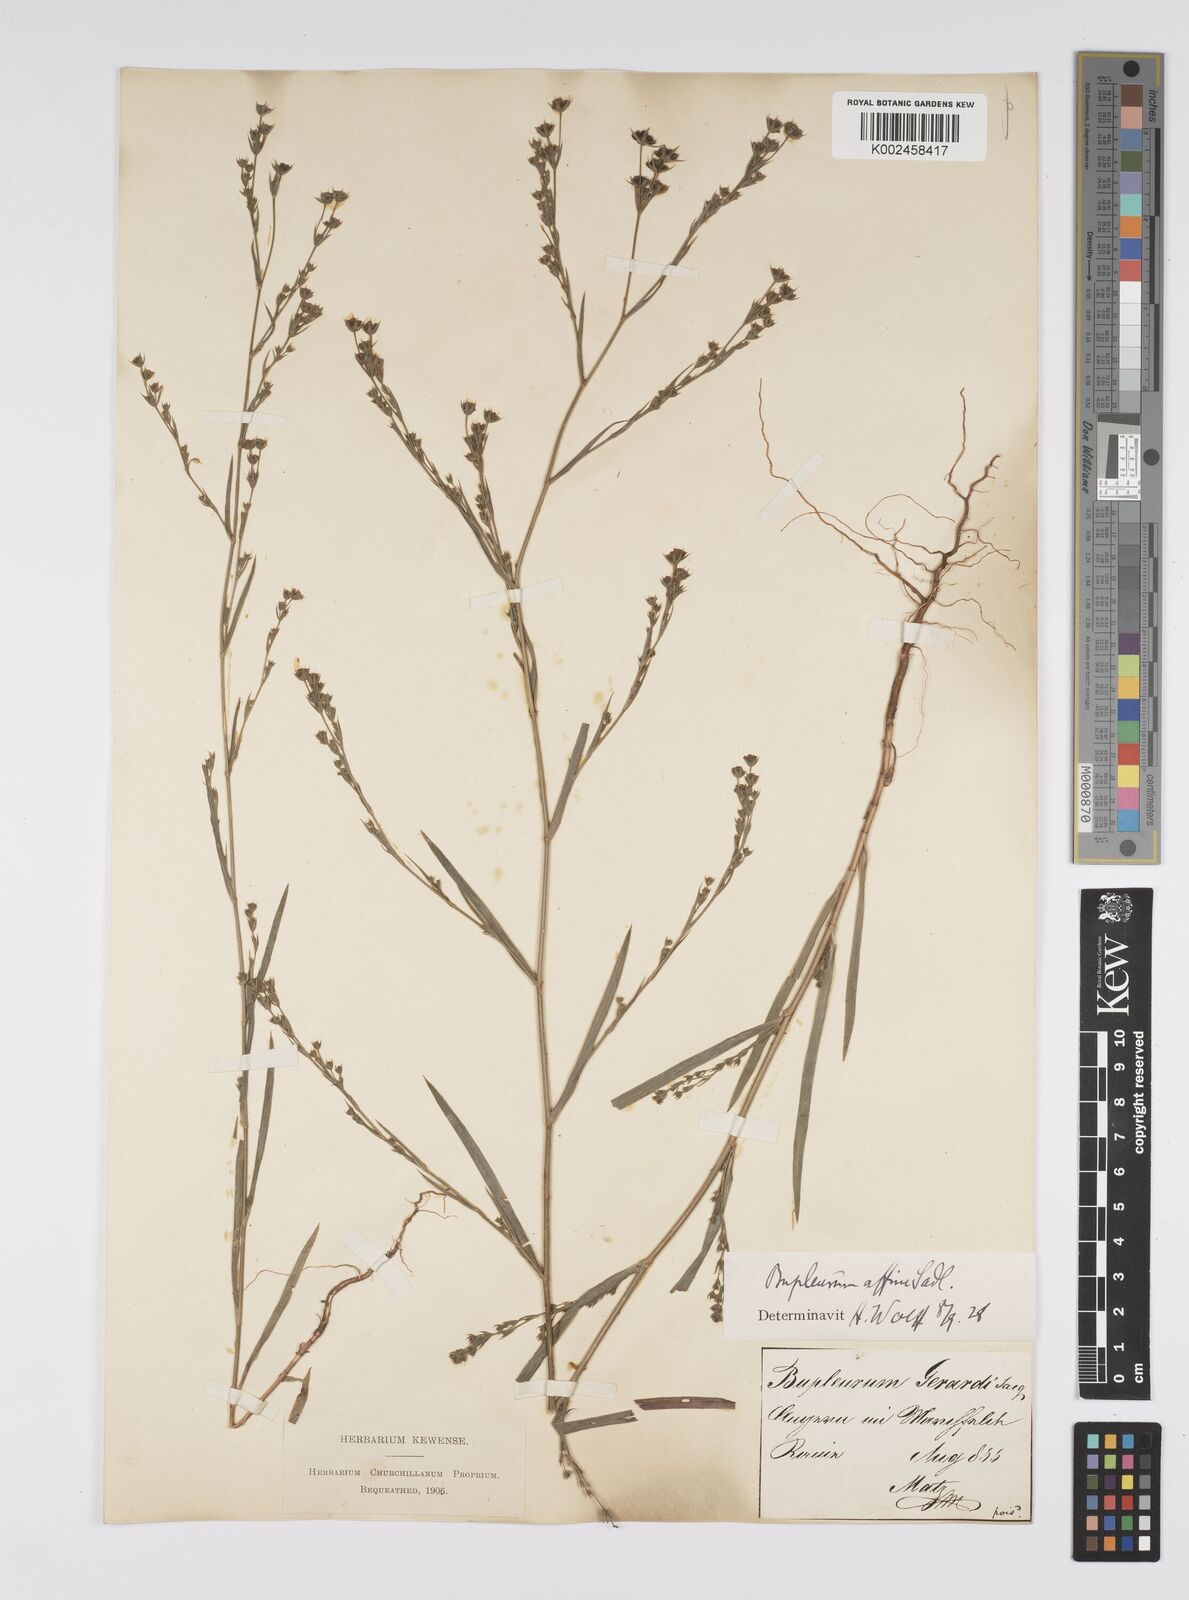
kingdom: Plantae
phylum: Tracheophyta
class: Magnoliopsida
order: Apiales
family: Apiaceae
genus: Bupleurum
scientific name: Bupleurum affine
